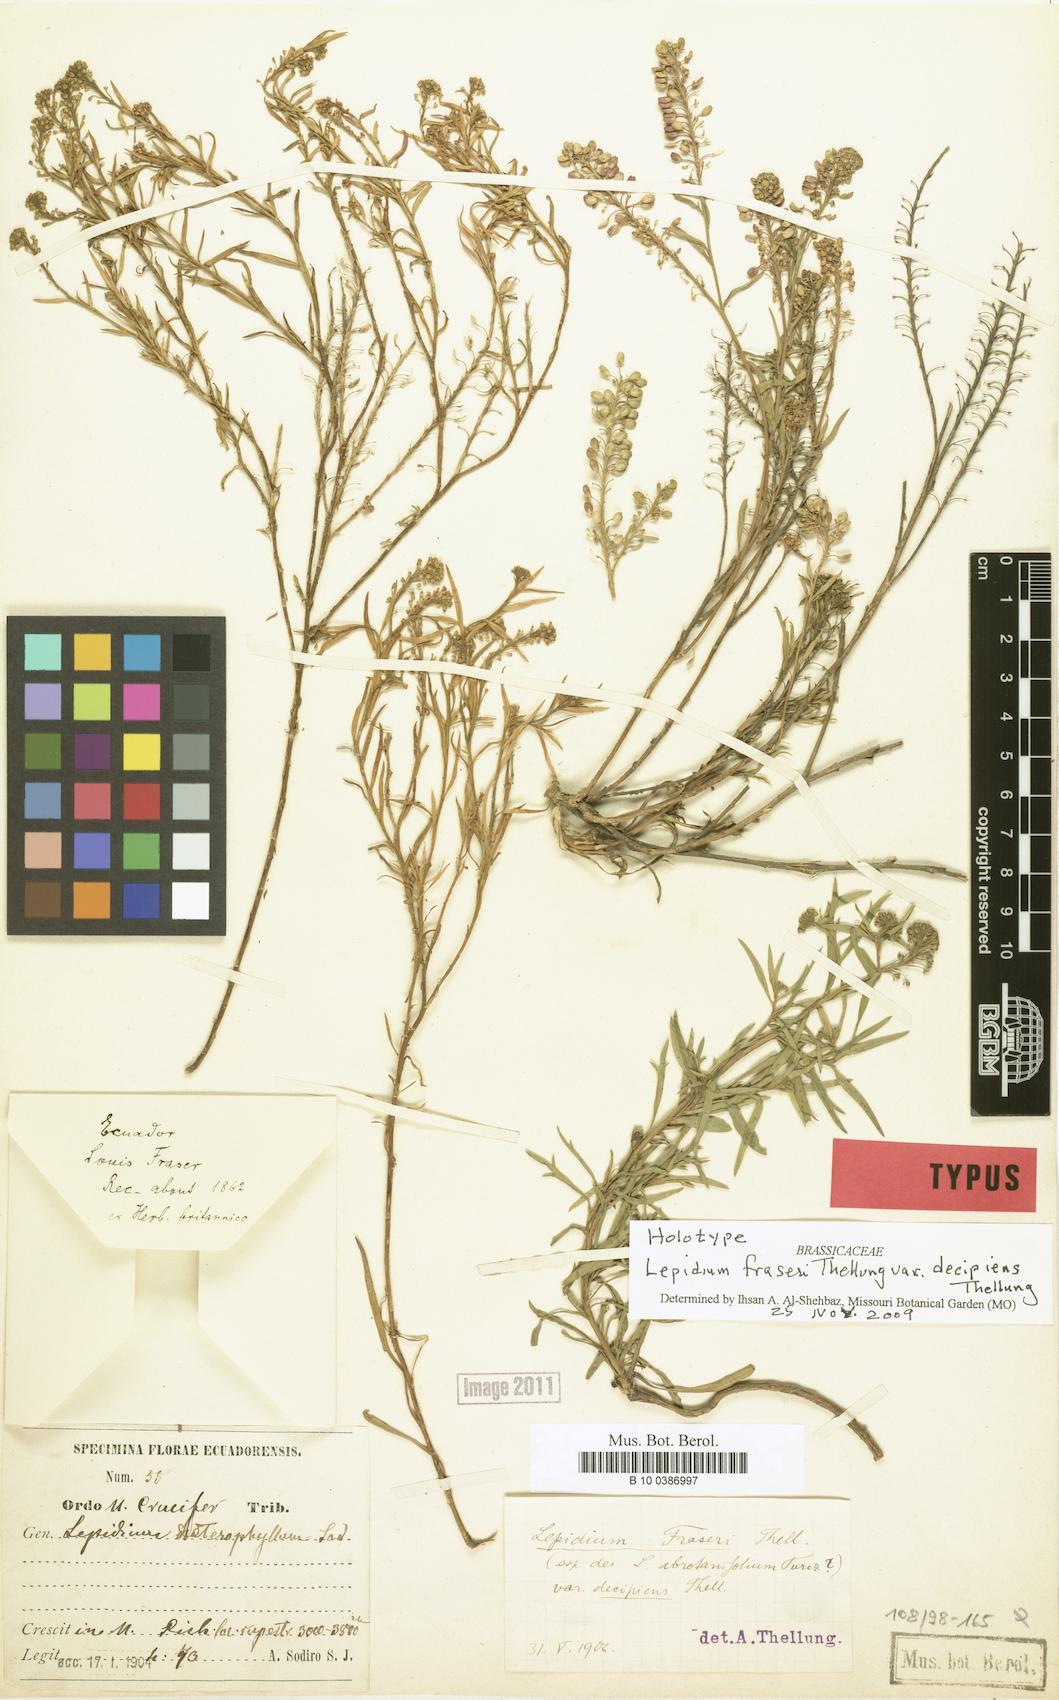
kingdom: Plantae
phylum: Tracheophyta
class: Magnoliopsida
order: Brassicales
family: Brassicaceae
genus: Lepidium
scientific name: Lepidium fraseri
